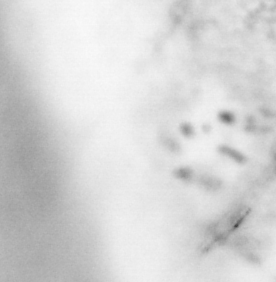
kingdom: Animalia
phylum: Chordata
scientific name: Chordata
